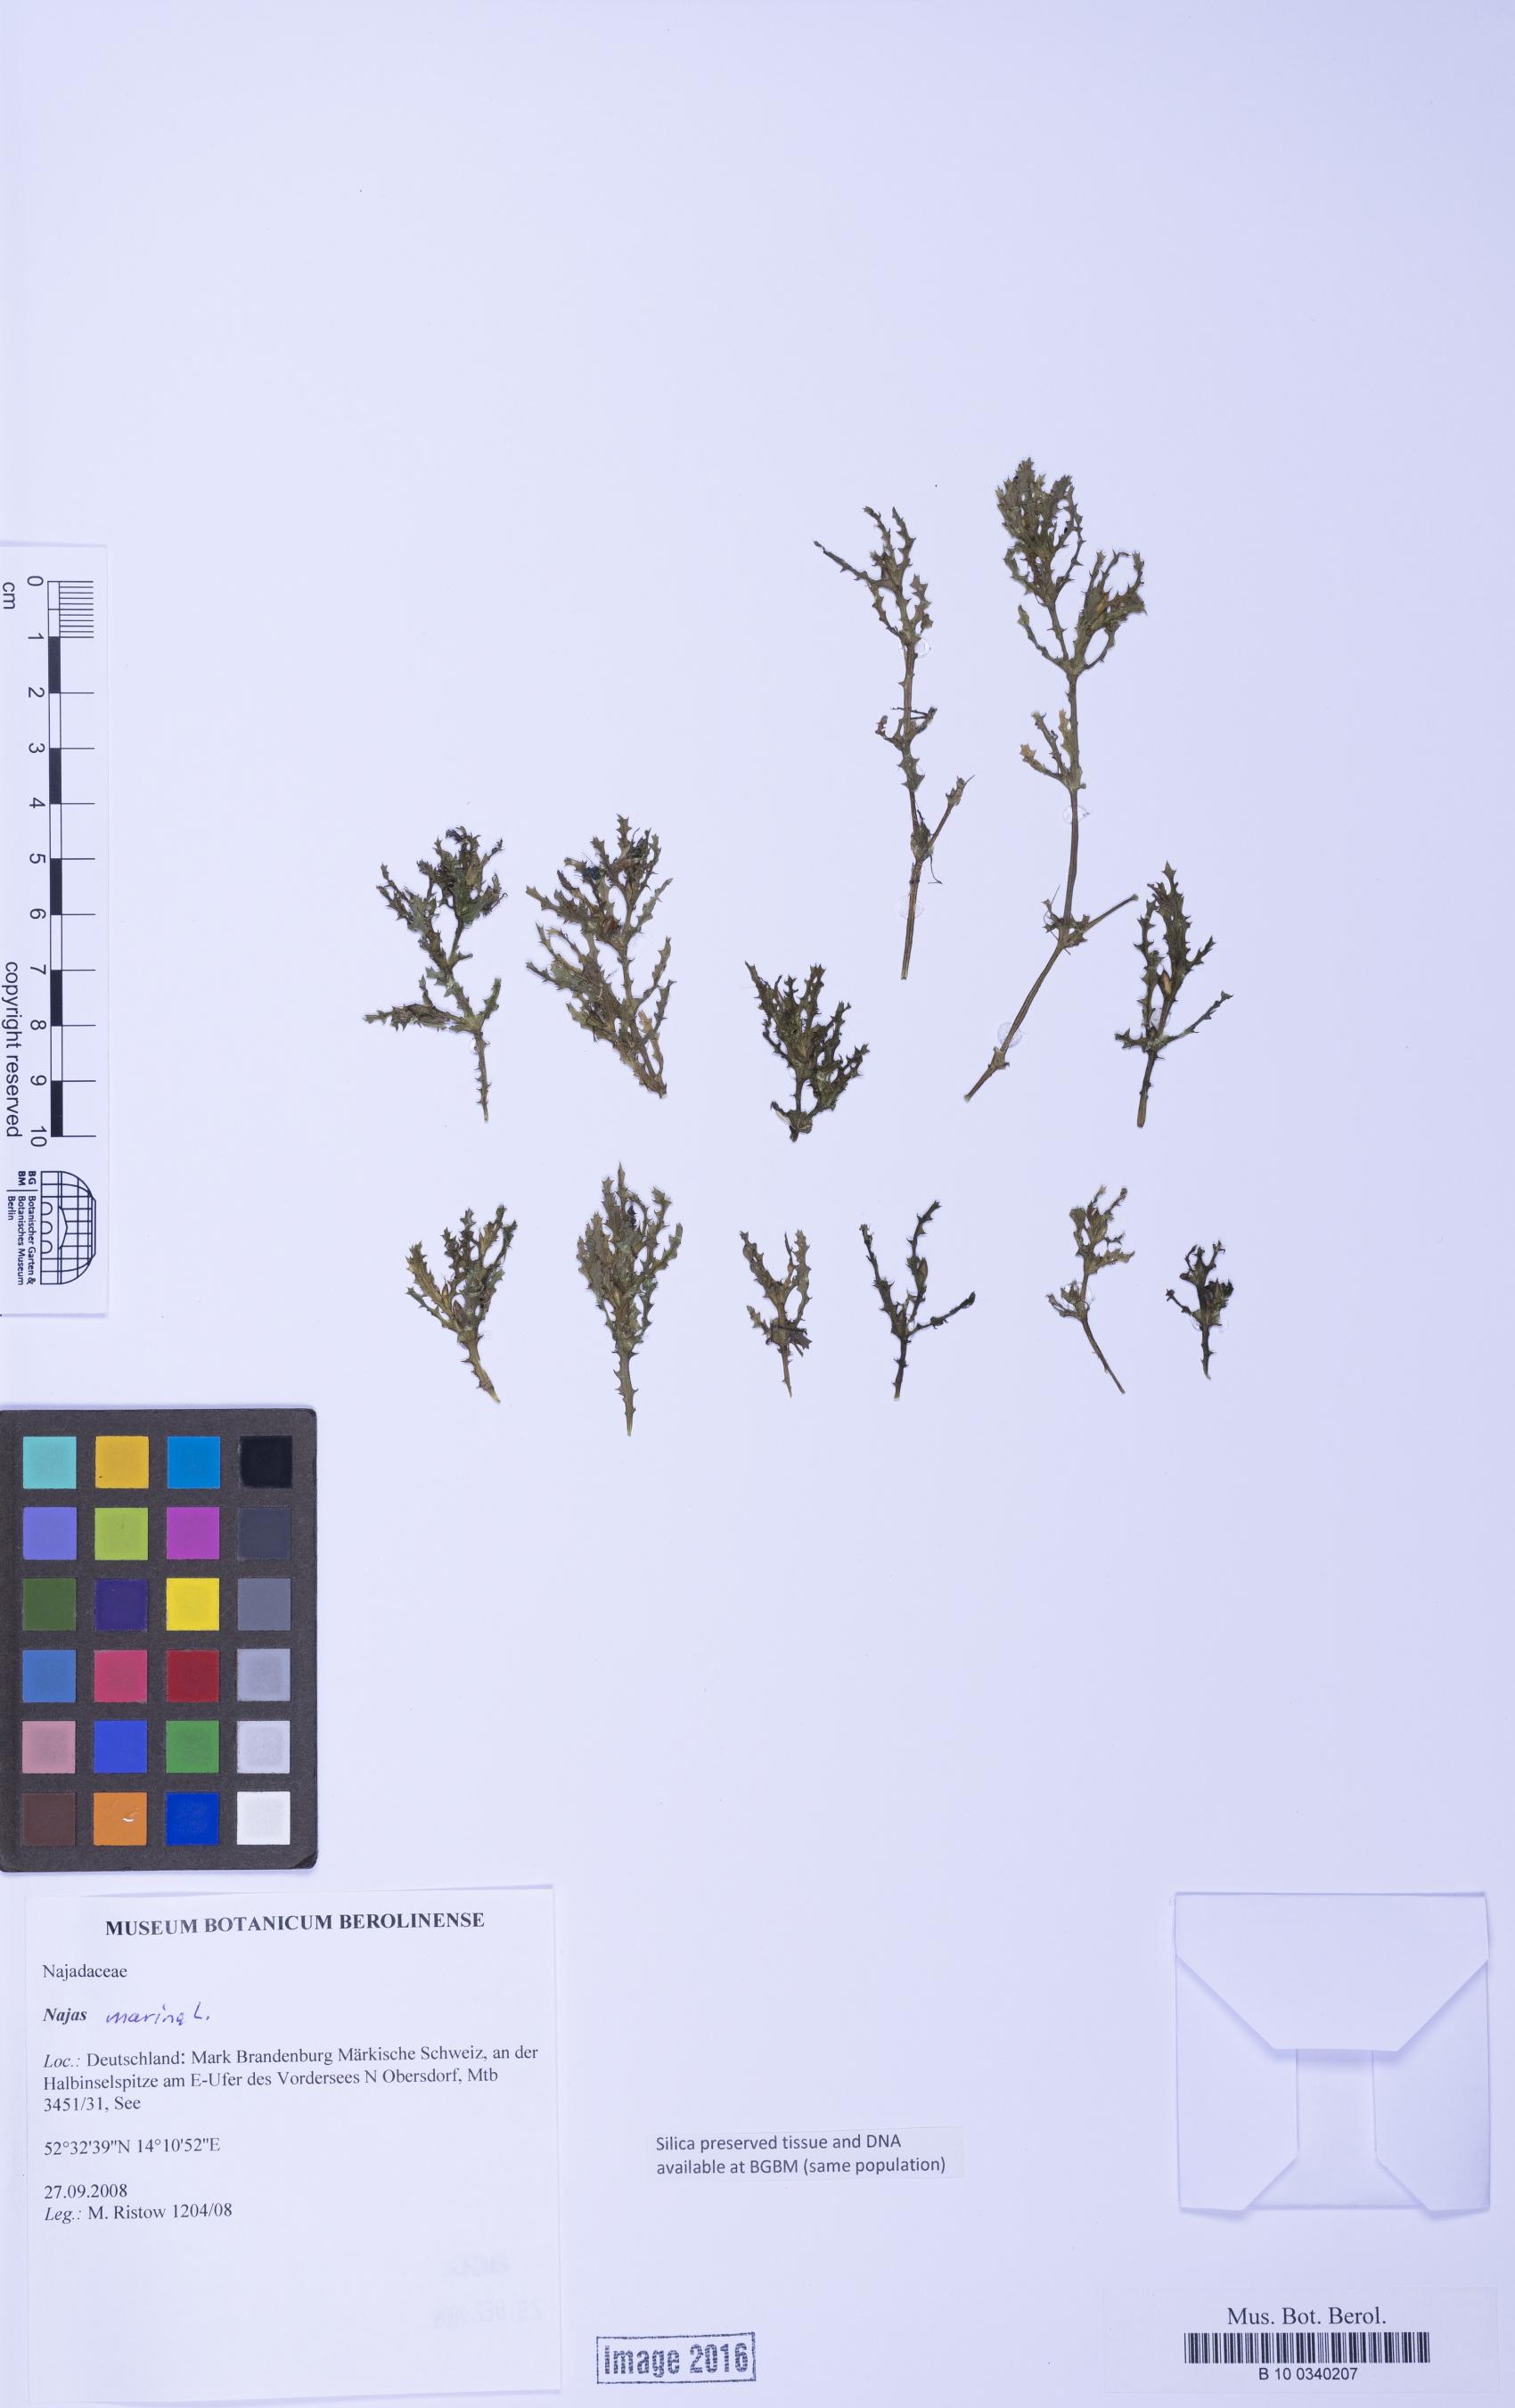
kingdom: Plantae
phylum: Tracheophyta
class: Liliopsida
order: Alismatales
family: Hydrocharitaceae
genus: Najas
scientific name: Najas
